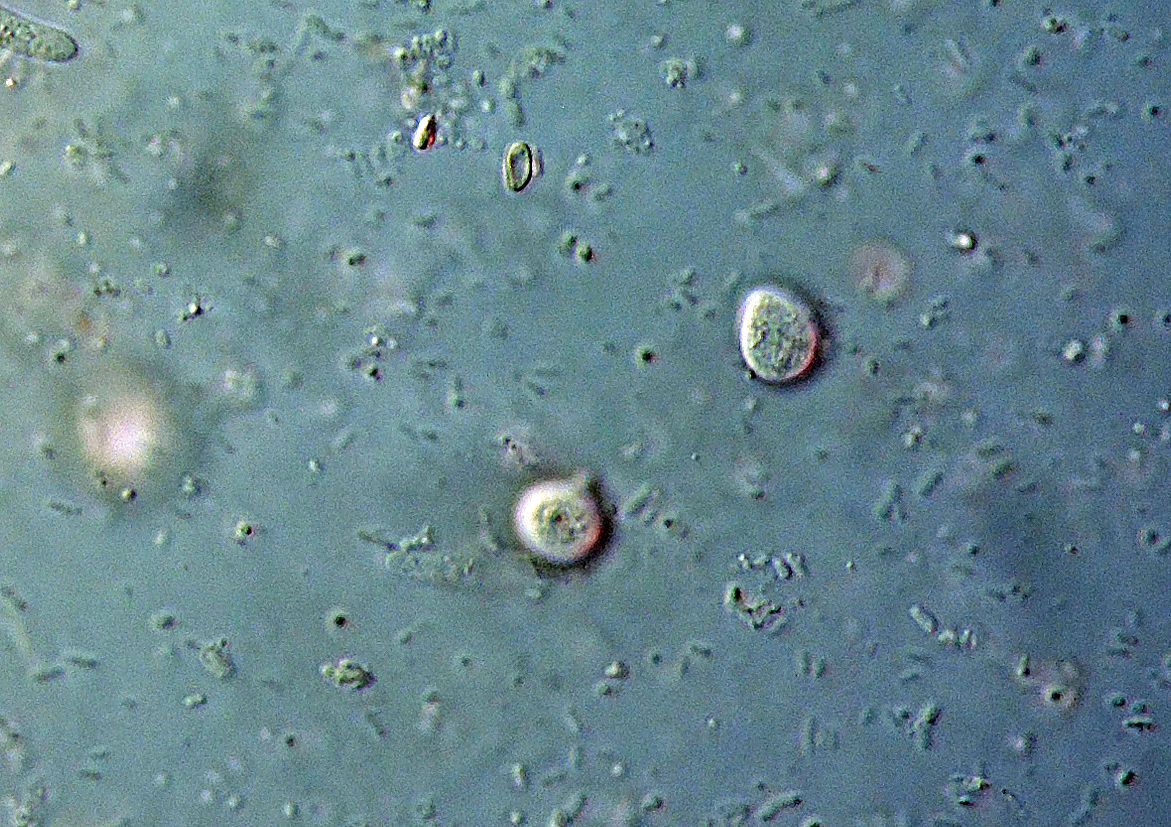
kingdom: Fungi
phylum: Basidiomycota
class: Tremellomycetes
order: Tremellales
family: Tremellaceae
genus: Tremella
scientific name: Tremella exigua
